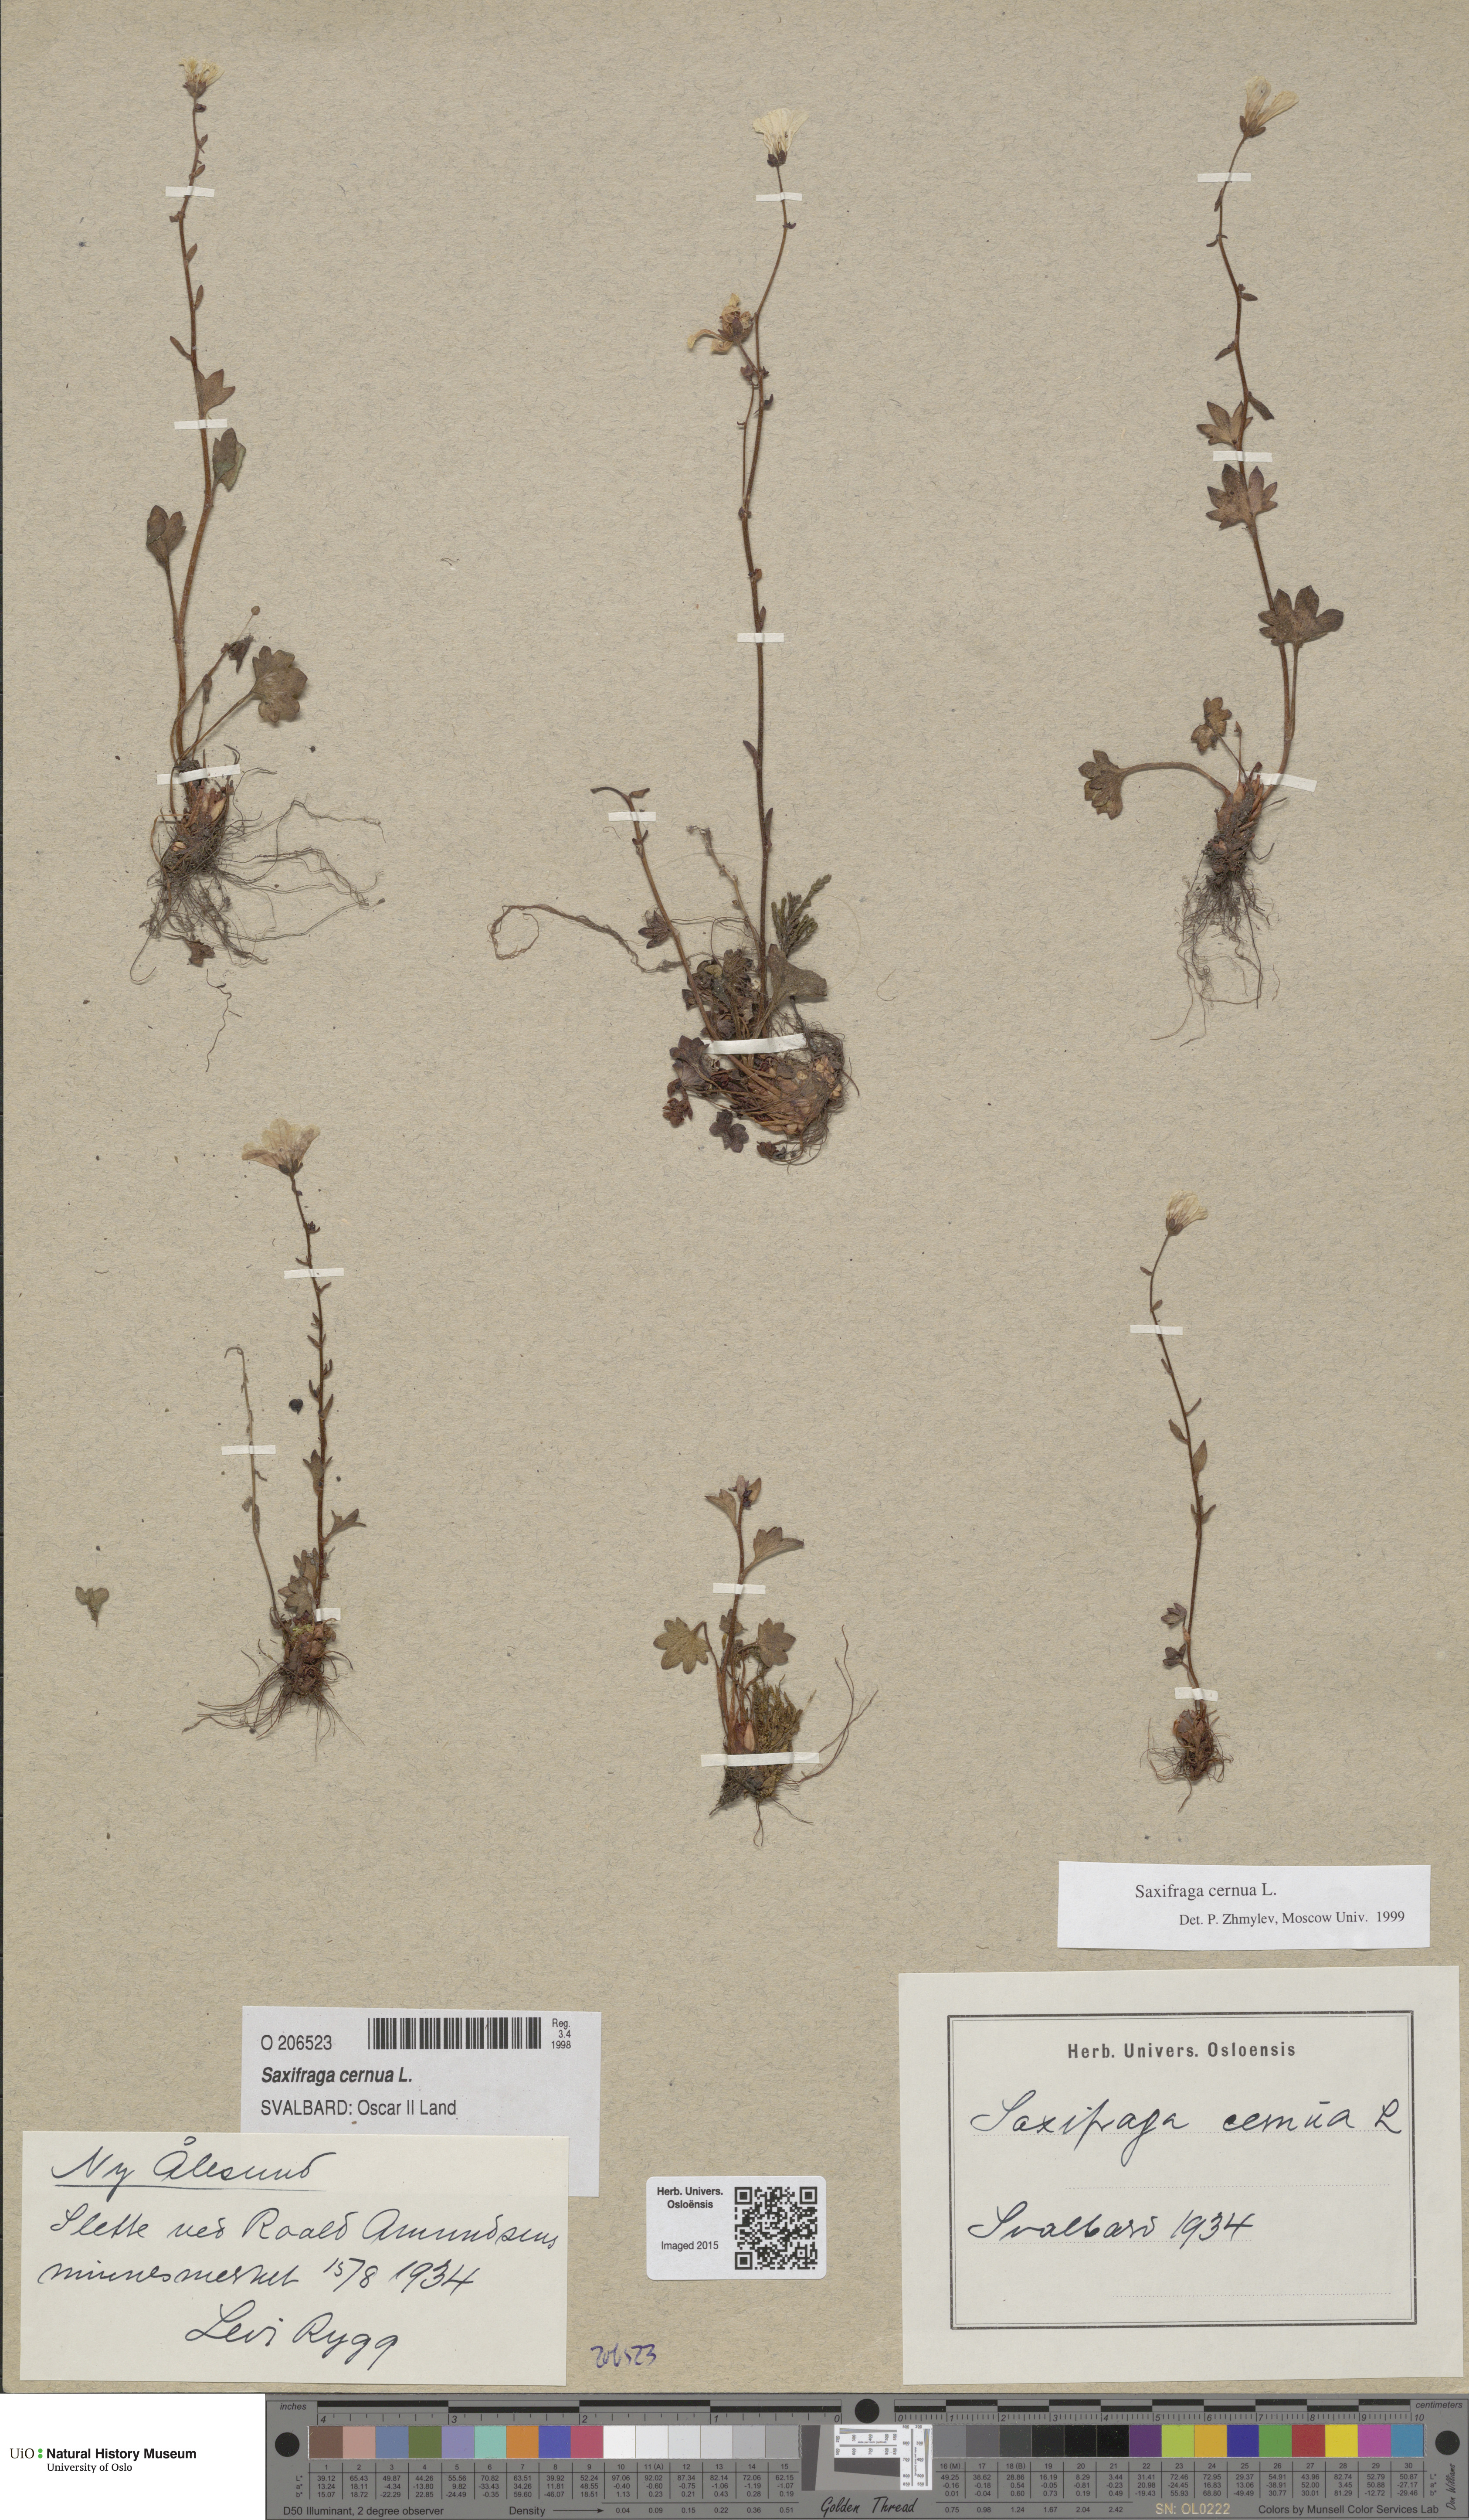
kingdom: Plantae
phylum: Tracheophyta
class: Magnoliopsida
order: Saxifragales
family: Saxifragaceae
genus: Saxifraga
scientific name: Saxifraga cernua
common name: Drooping saxifrage
